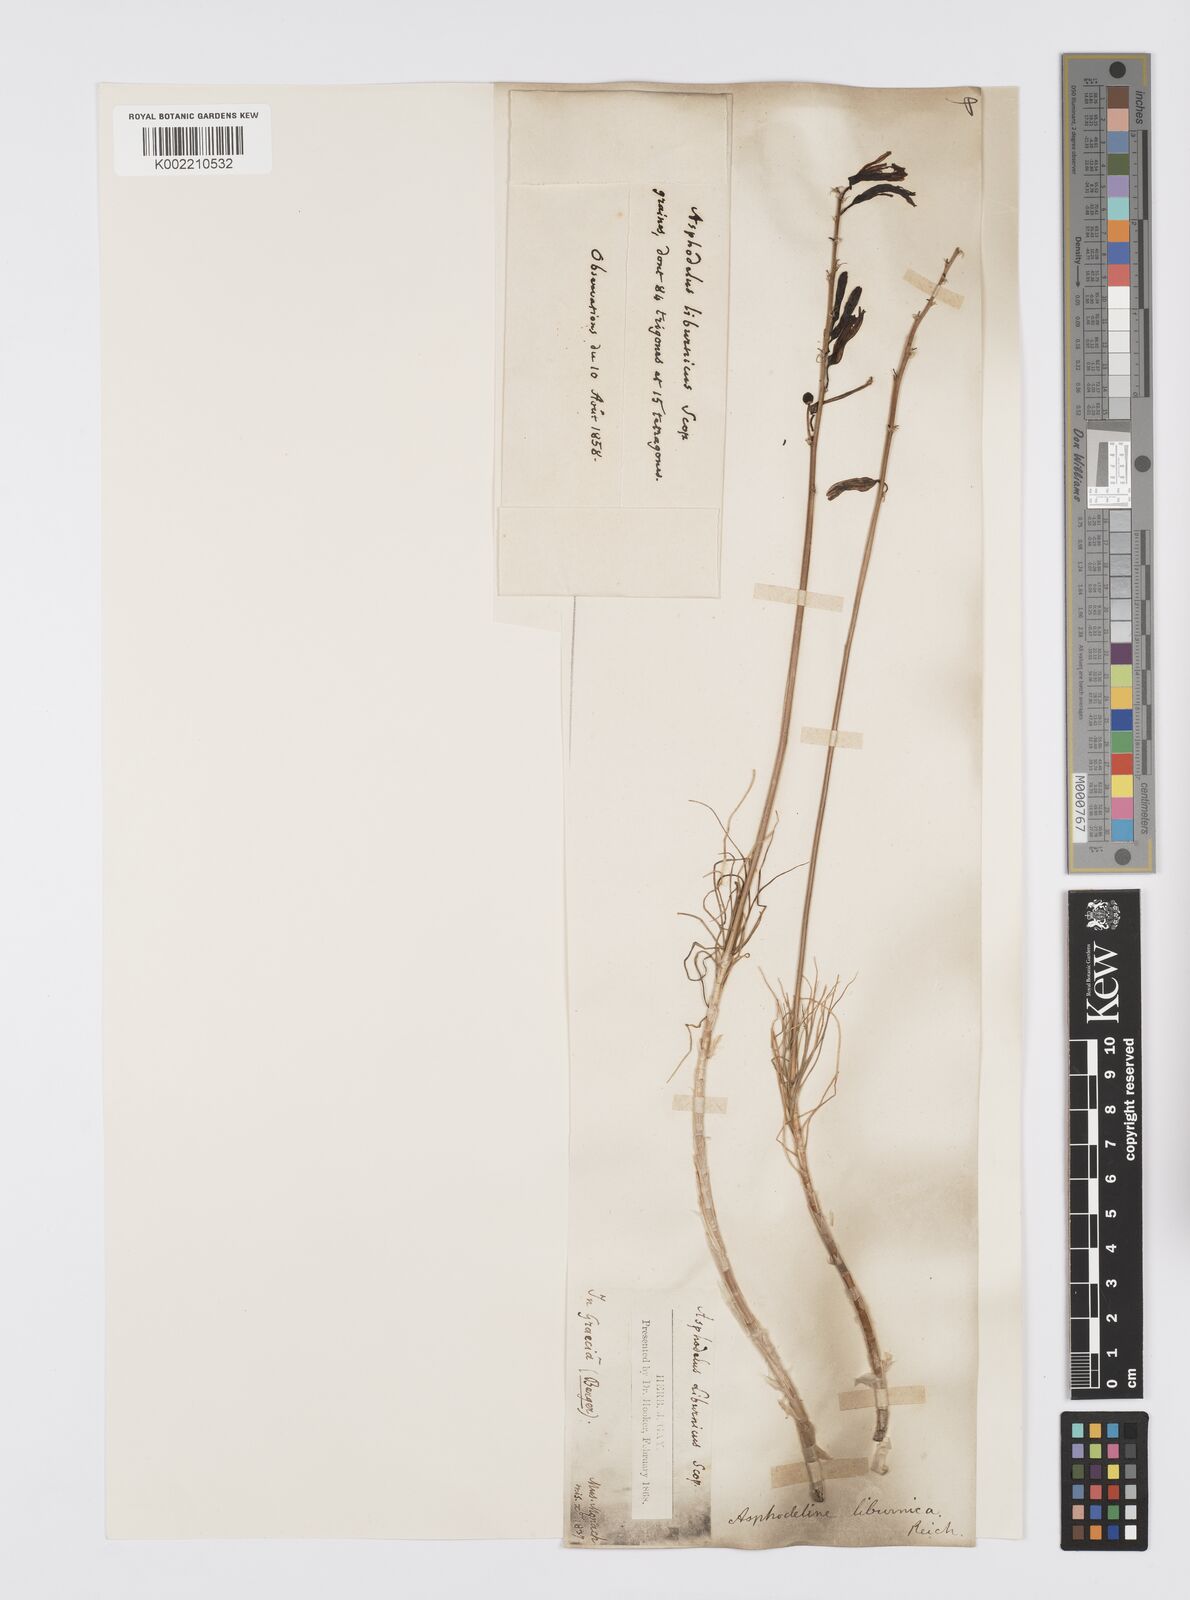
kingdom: Plantae
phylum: Tracheophyta
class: Liliopsida
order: Asparagales
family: Asphodelaceae
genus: Asphodeline
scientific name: Asphodeline liburnica
